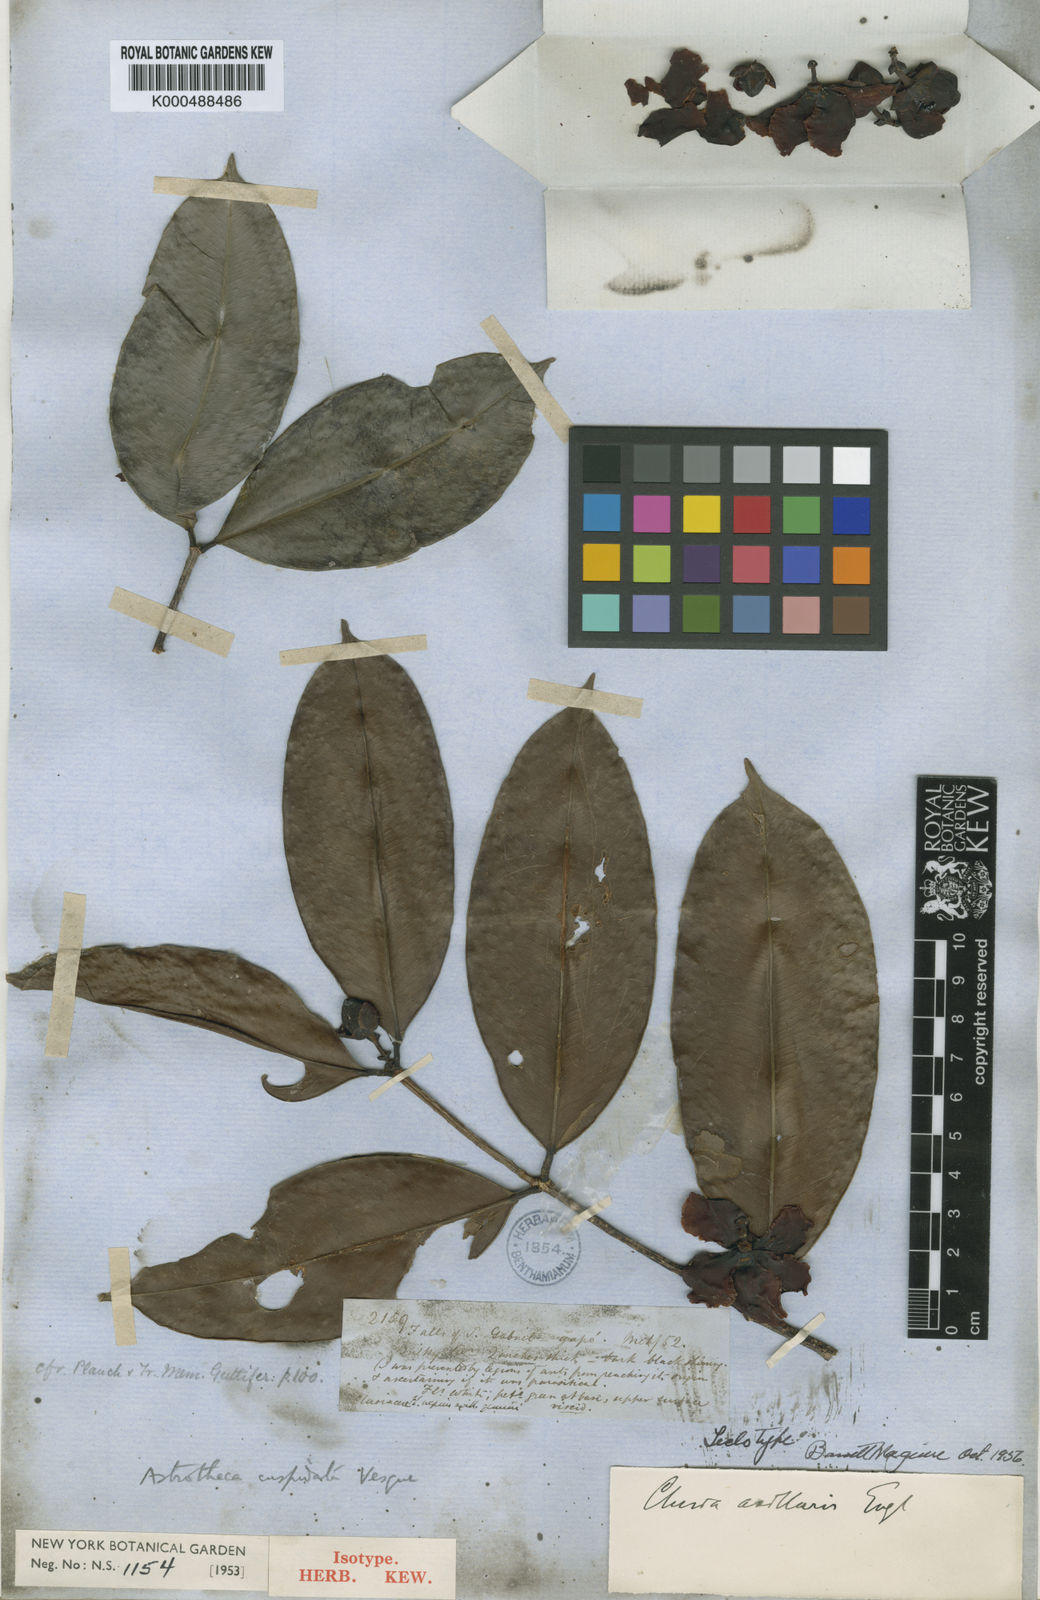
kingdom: Plantae
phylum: Tracheophyta
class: Magnoliopsida
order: Malpighiales
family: Calophyllaceae
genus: Clusiella
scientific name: Clusiella axillaris
